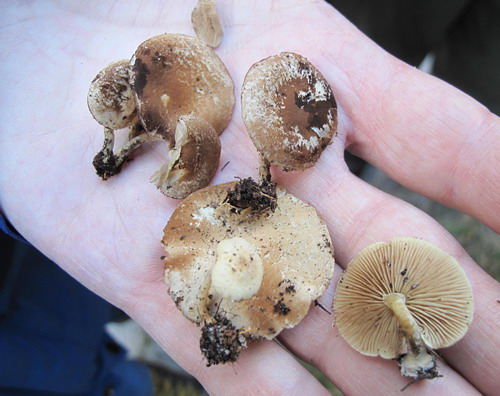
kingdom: Fungi
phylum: Basidiomycota
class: Agaricomycetes
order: Agaricales
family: Strophariaceae
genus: Pholiota
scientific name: Pholiota scamba
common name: dværg-skælhat
